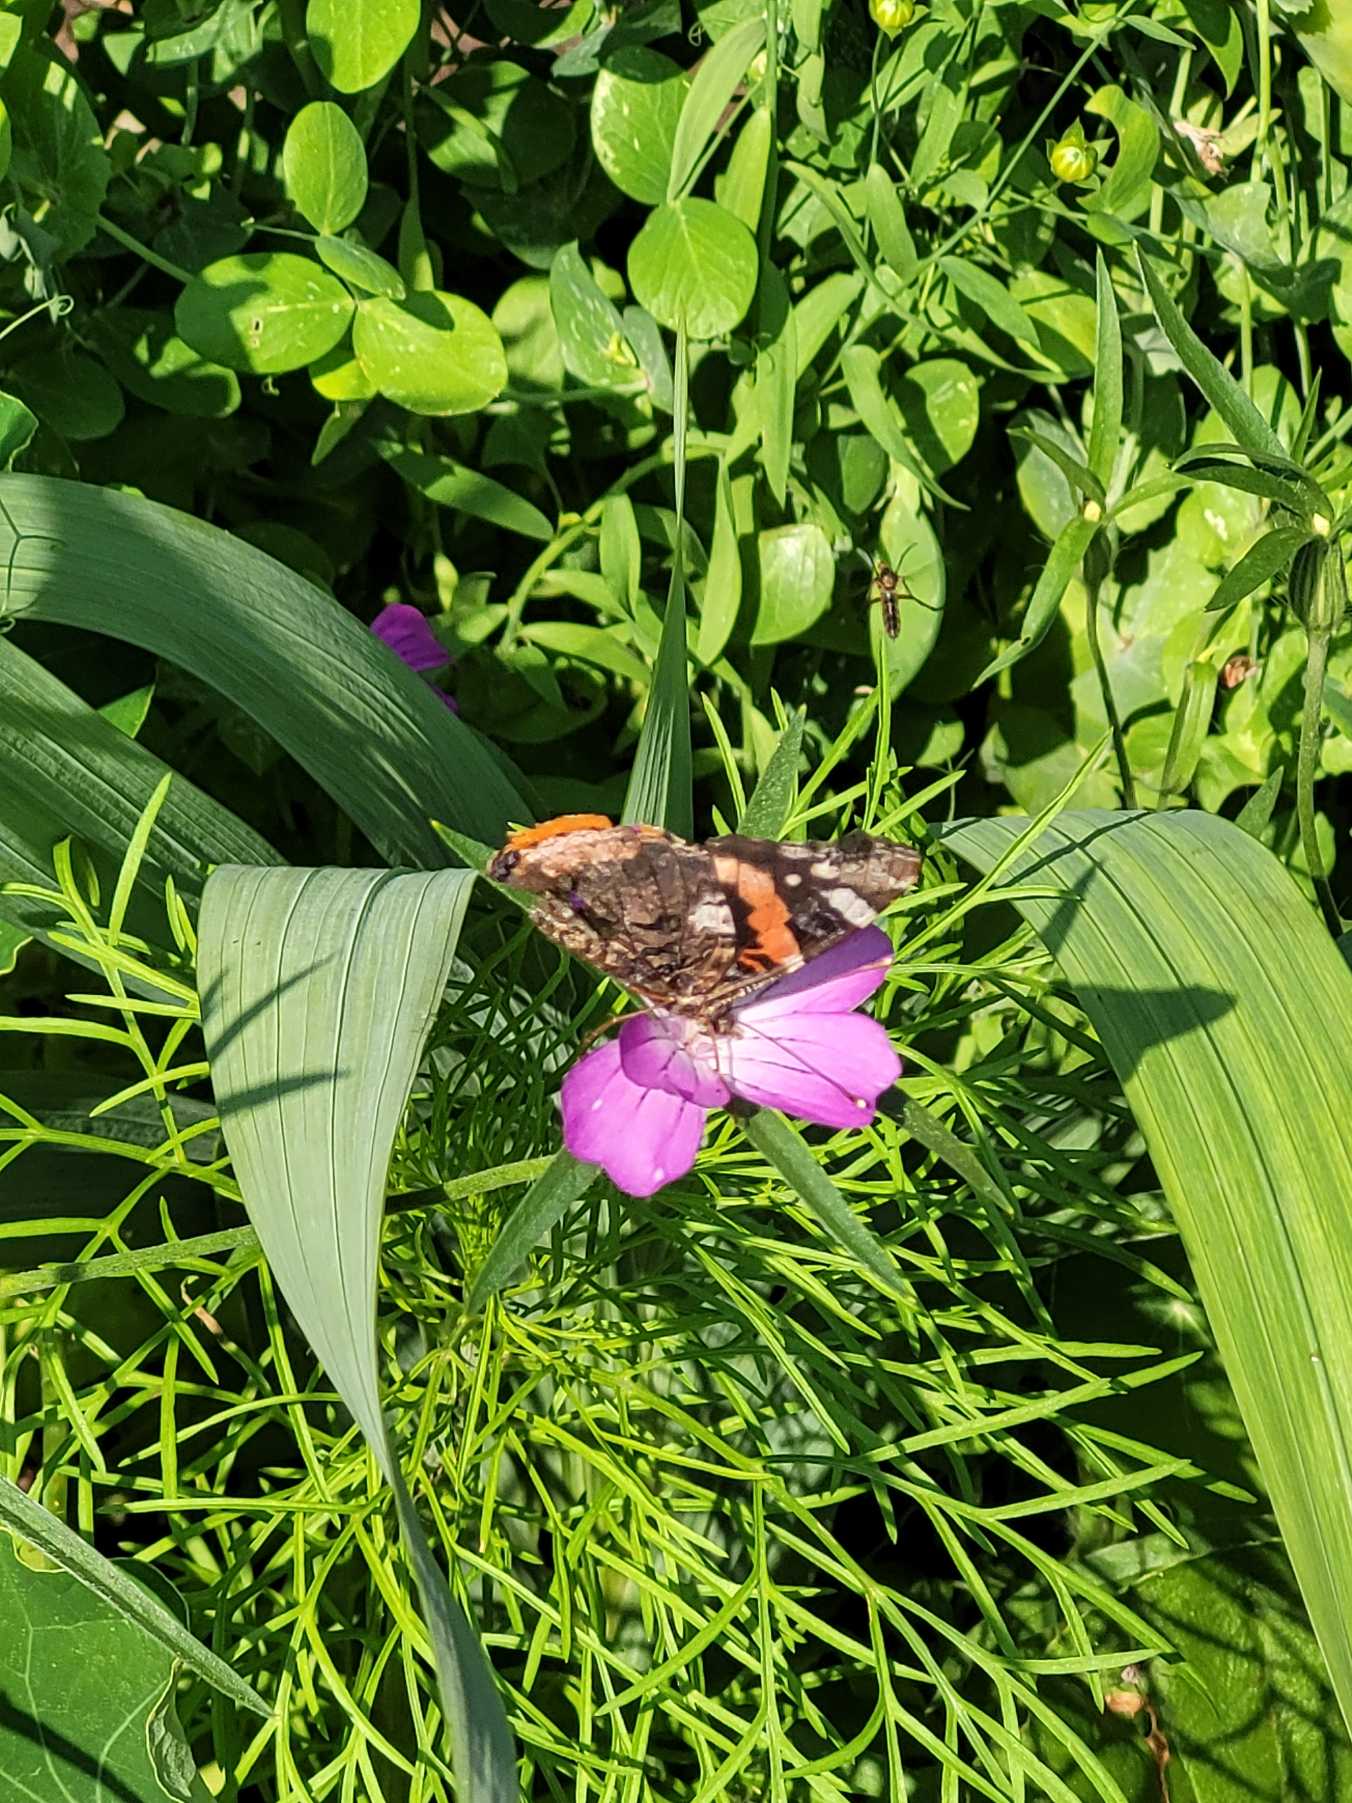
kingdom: Animalia
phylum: Arthropoda
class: Insecta
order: Lepidoptera
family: Nymphalidae
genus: Vanessa
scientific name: Vanessa atalanta
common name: Admiral
